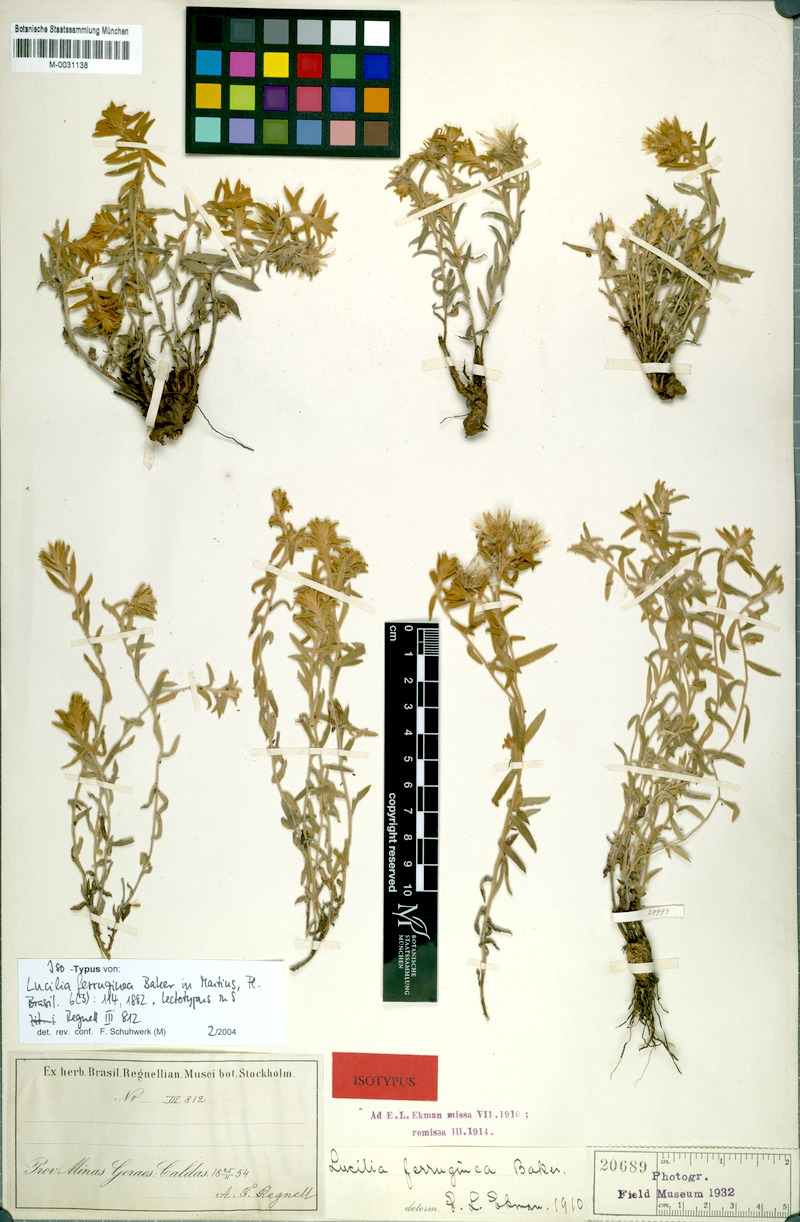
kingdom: Plantae
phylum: Tracheophyta
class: Magnoliopsida
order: Asterales
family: Asteraceae
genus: Lucilia
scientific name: Lucilia ferruginea
